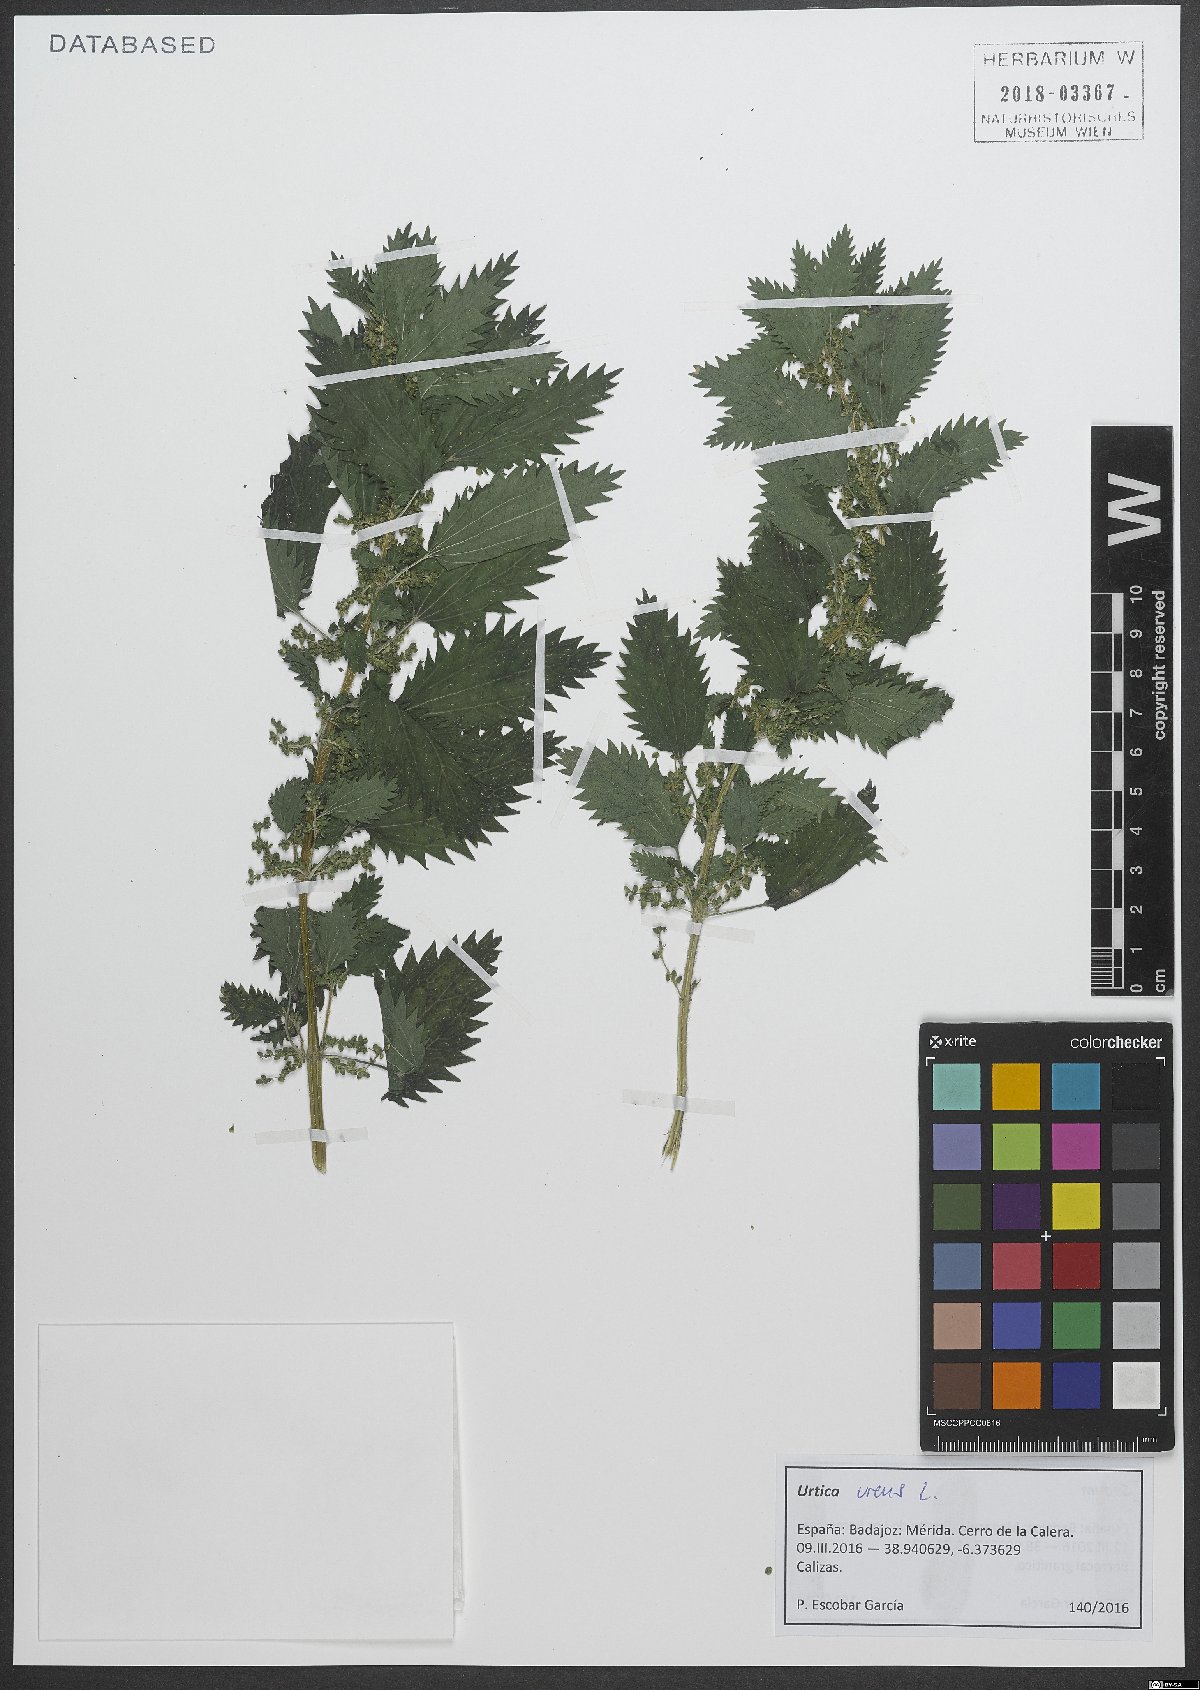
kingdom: Plantae
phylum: Tracheophyta
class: Magnoliopsida
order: Rosales
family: Urticaceae
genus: Urtica
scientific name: Urtica urens
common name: Dwarf nettle
